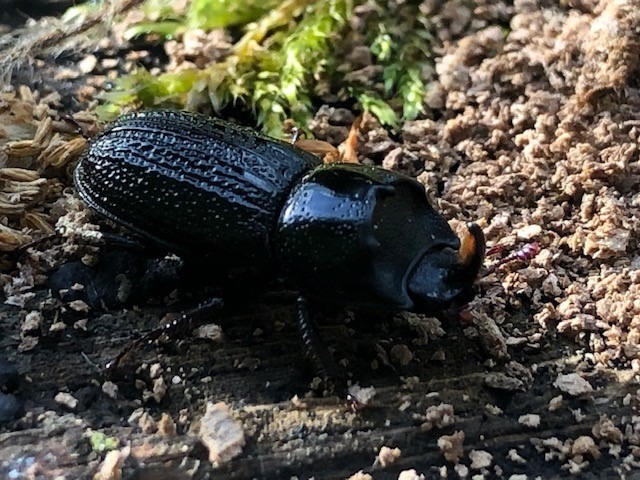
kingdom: Animalia
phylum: Arthropoda
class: Insecta
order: Coleoptera
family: Lucanidae
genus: Sinodendron
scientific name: Sinodendron cylindricum
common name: Valsehjort
